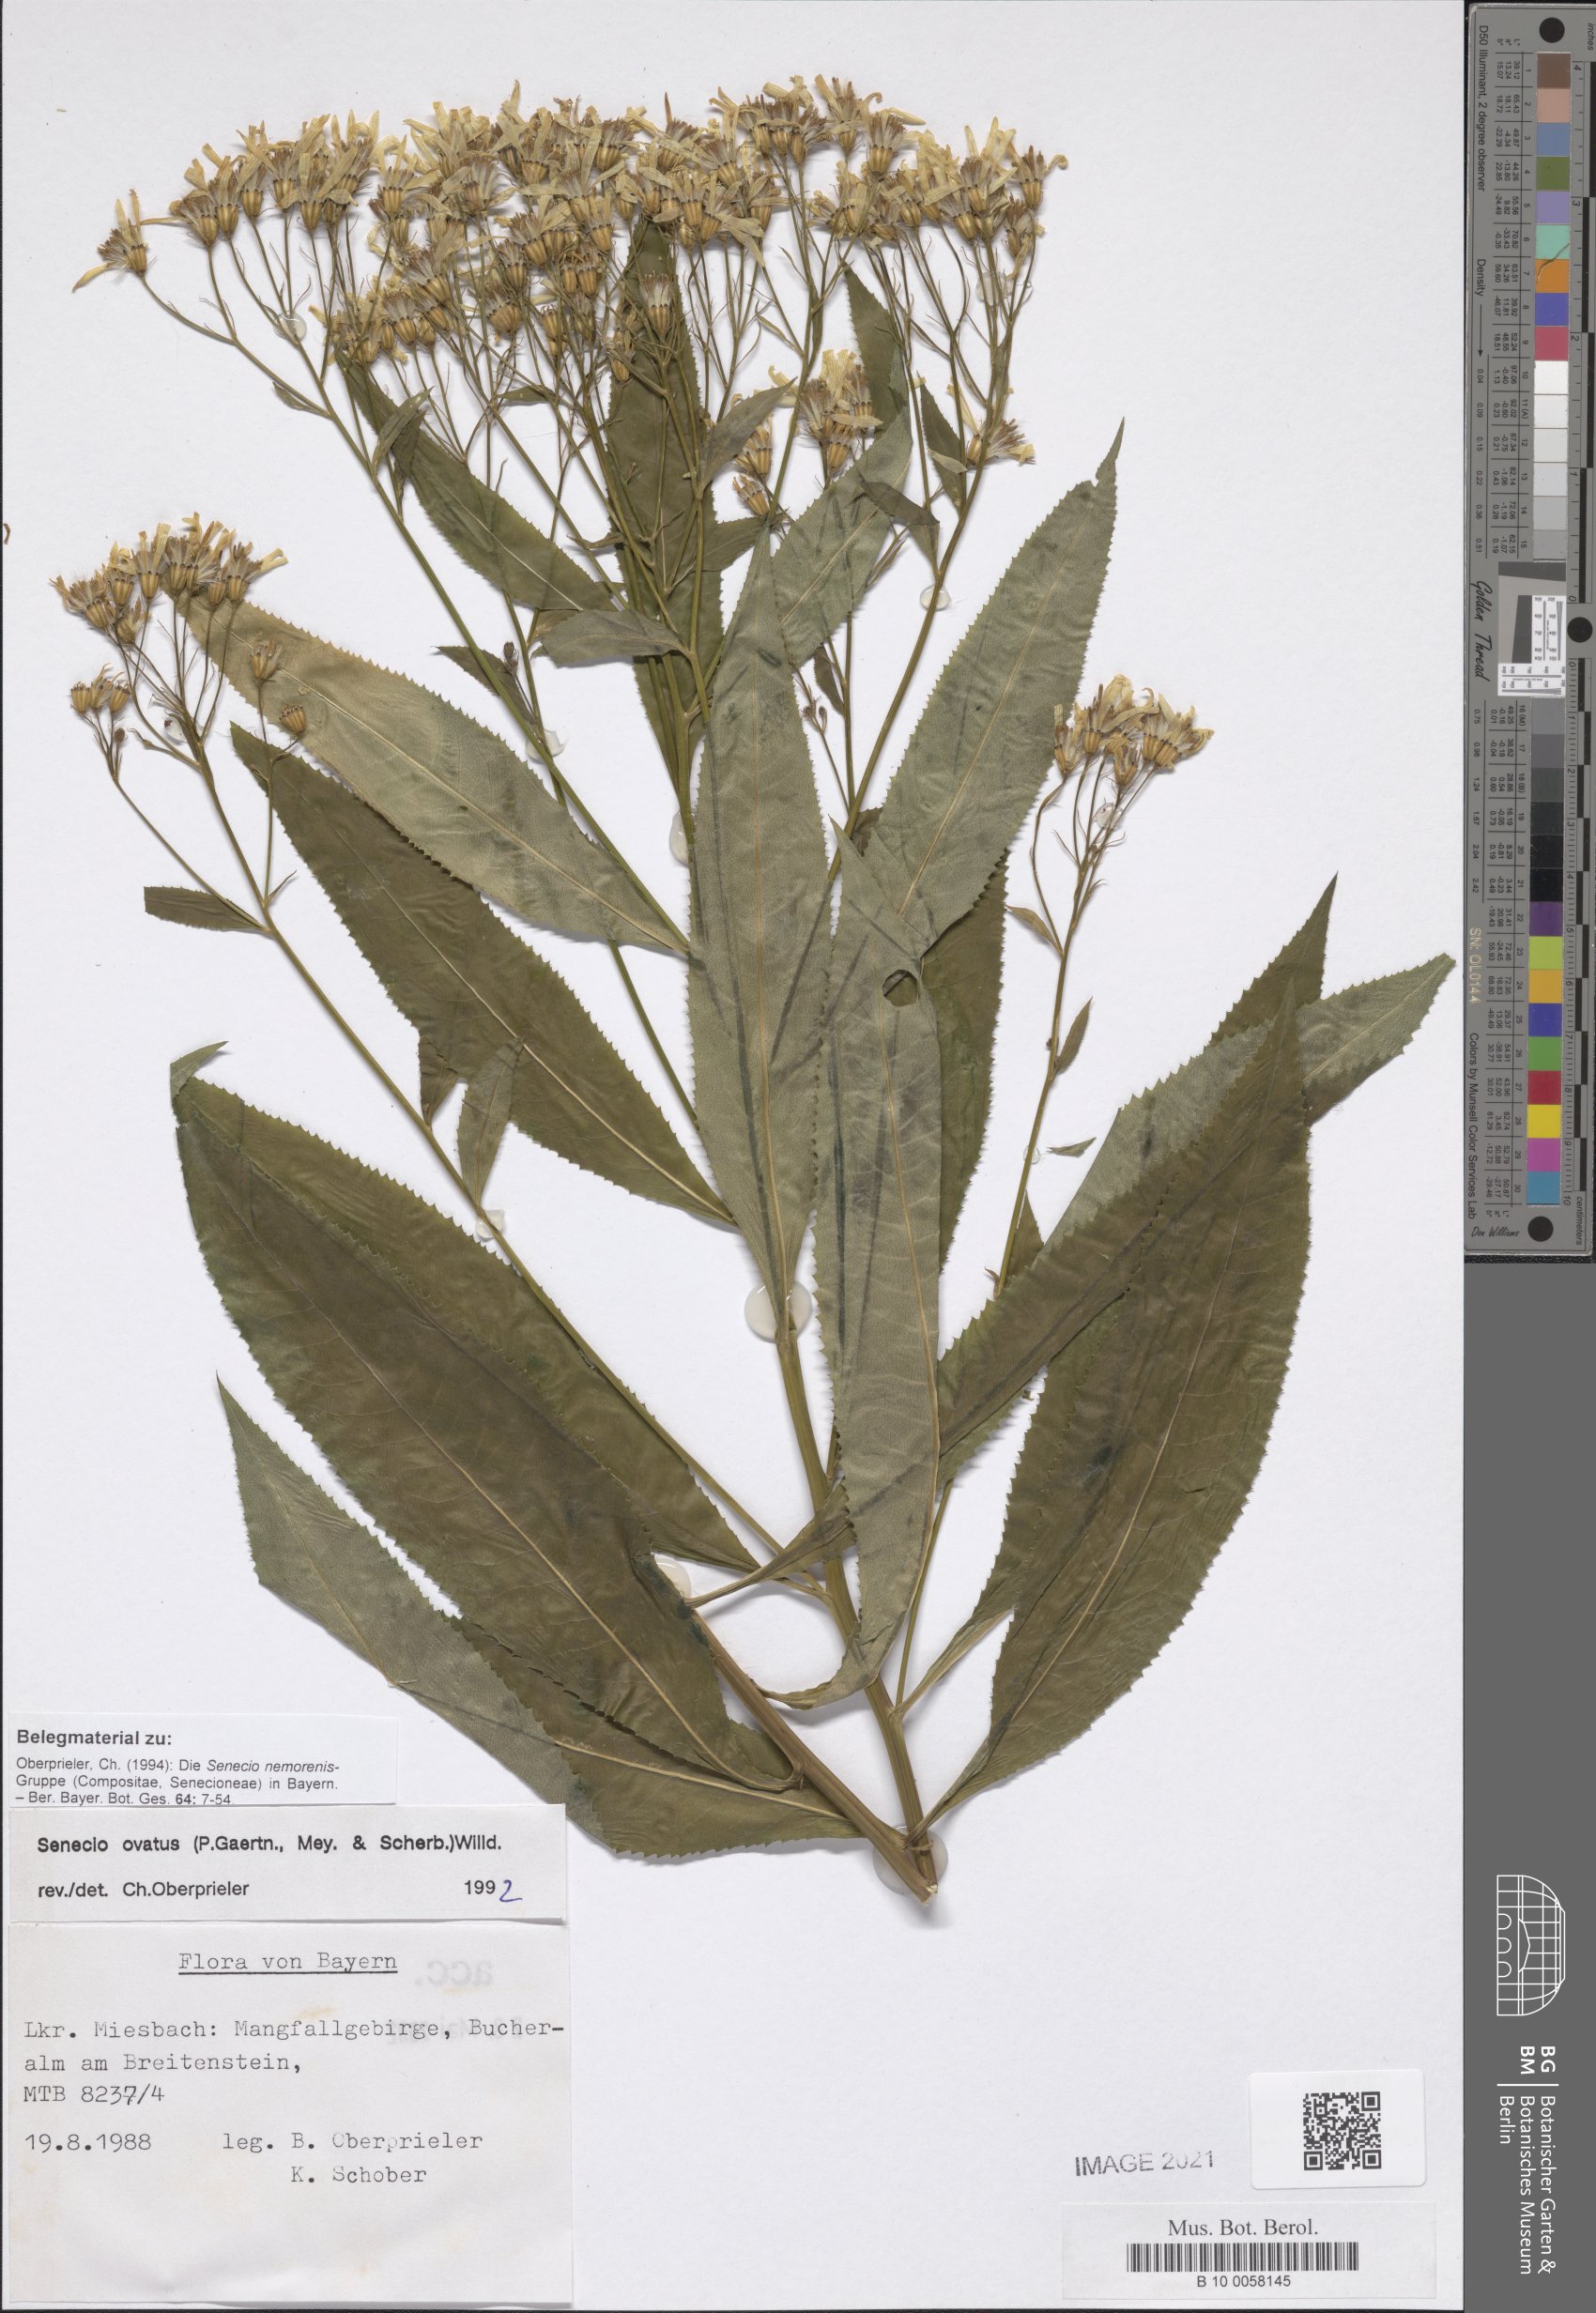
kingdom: Plantae
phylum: Tracheophyta
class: Magnoliopsida
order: Asterales
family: Asteraceae
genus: Senecio
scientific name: Senecio ovatus
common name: Wood ragwort
